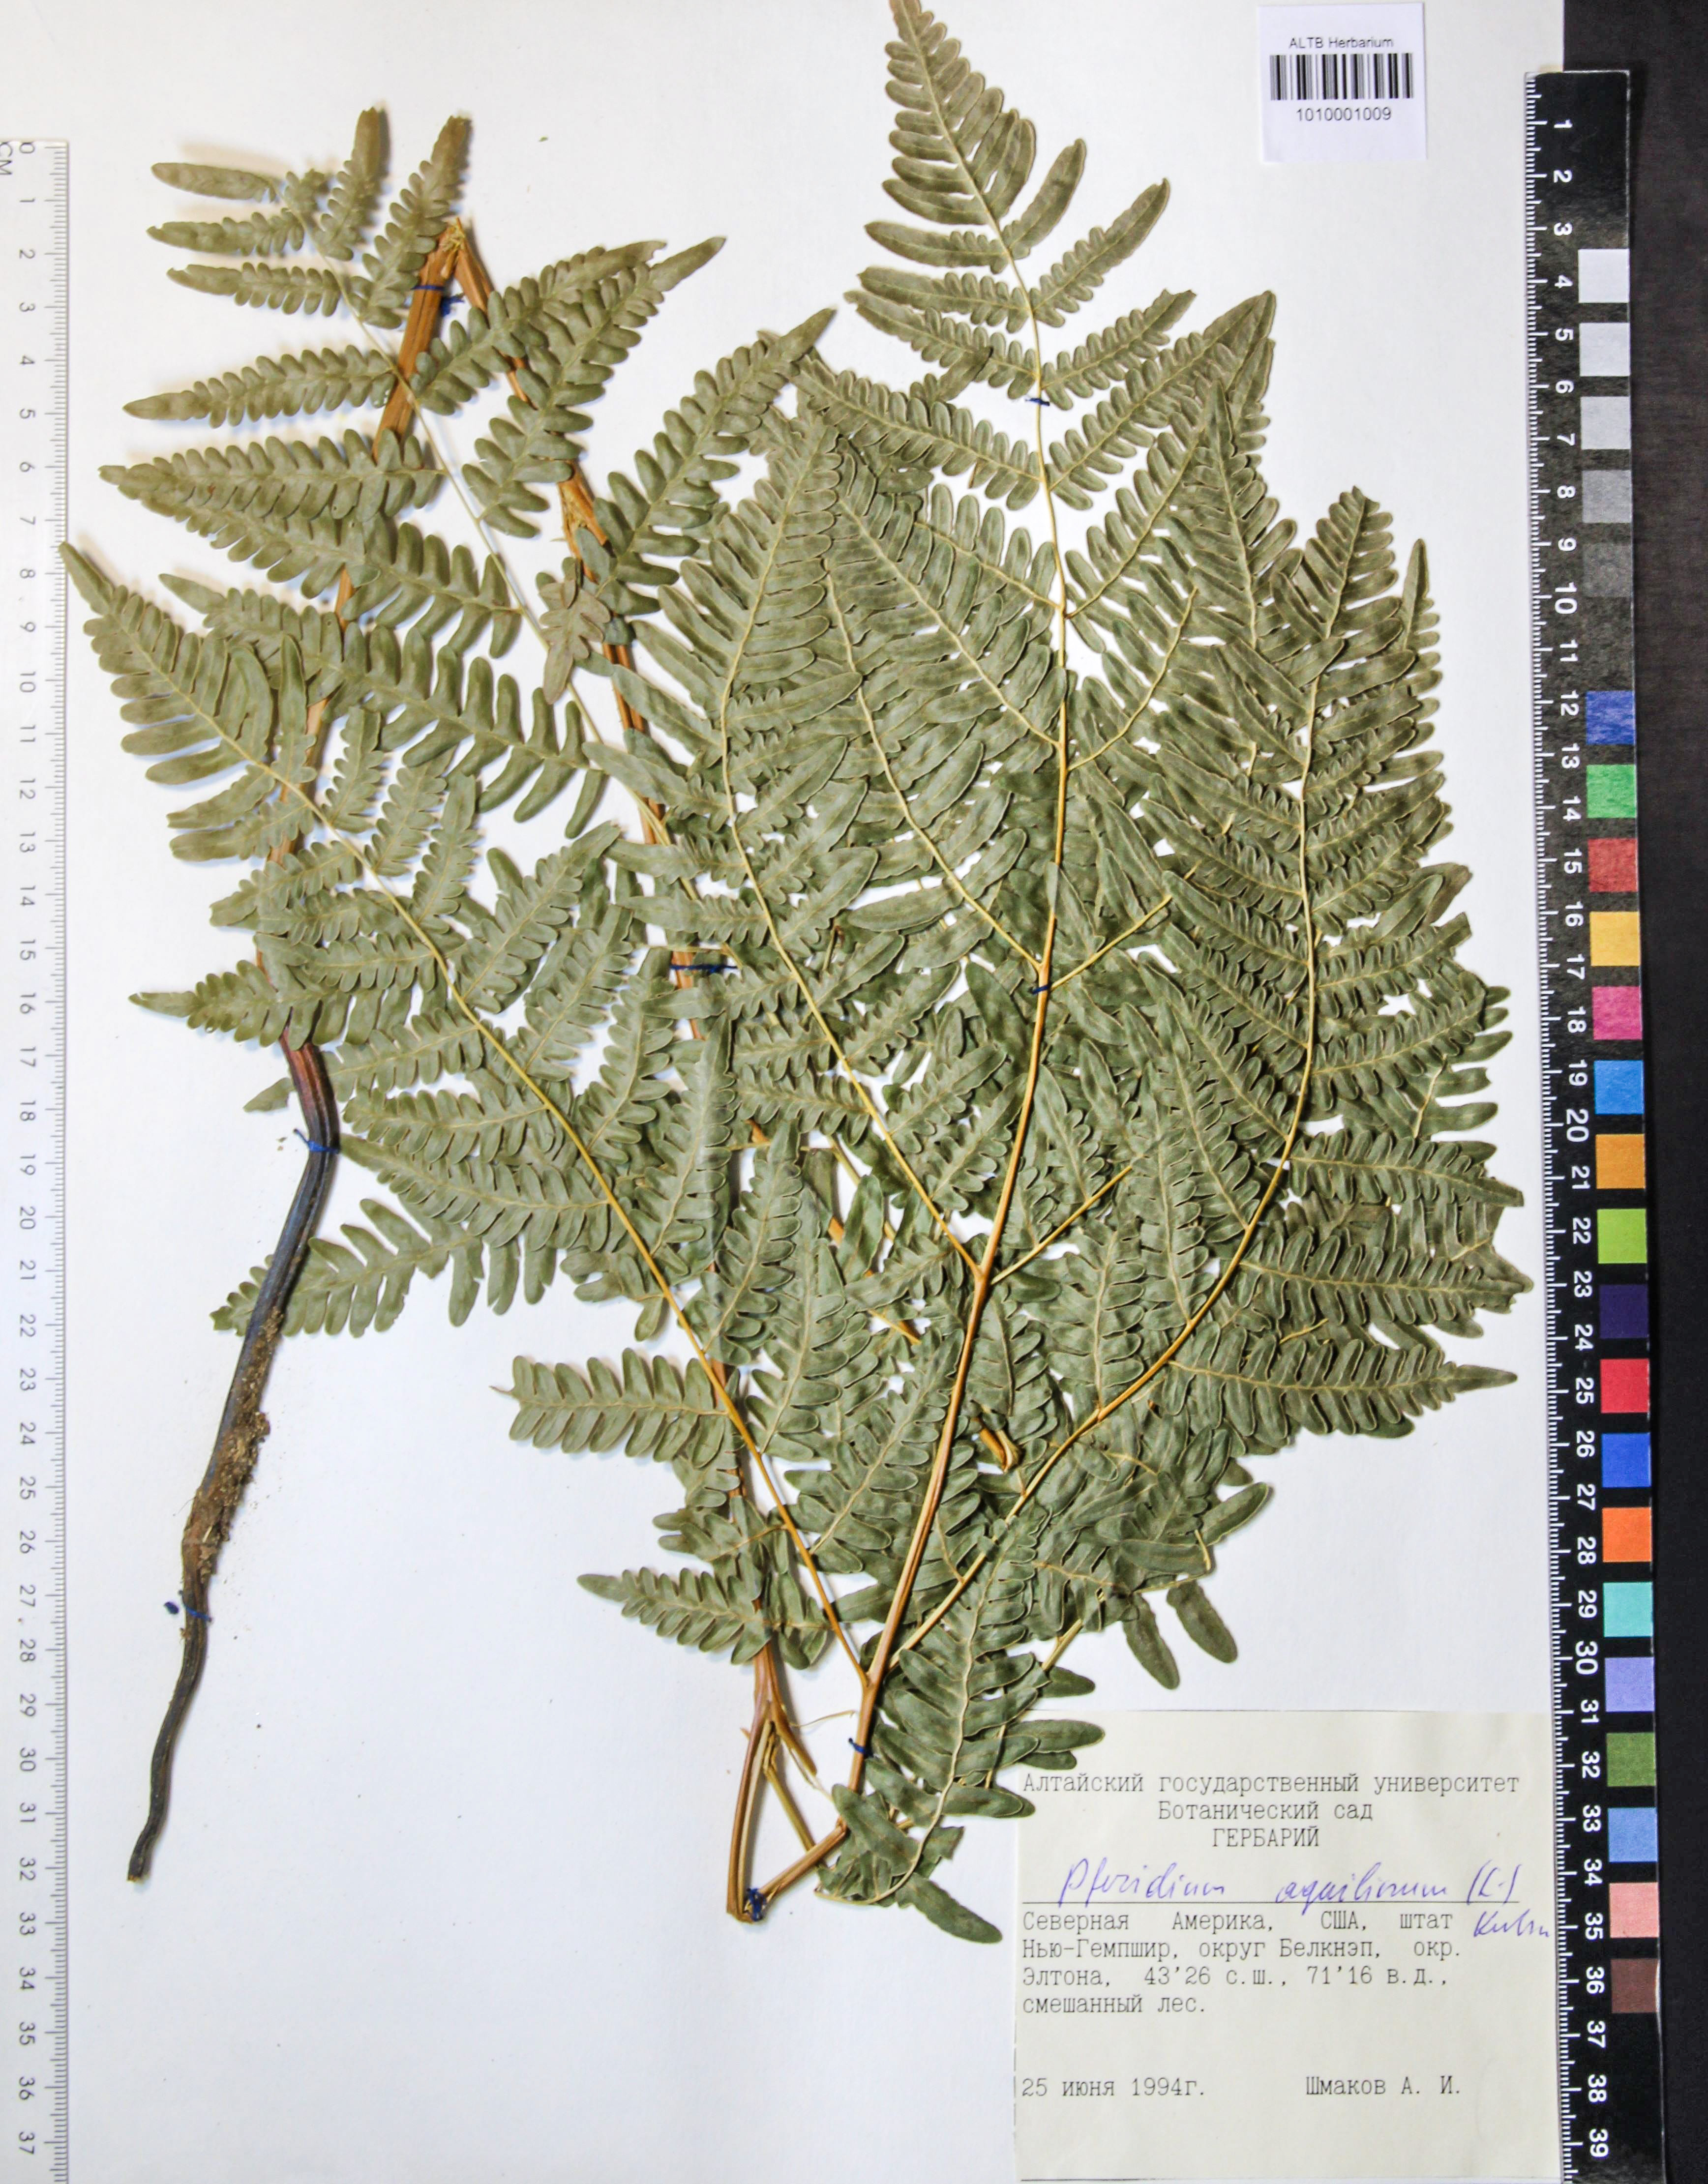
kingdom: Plantae
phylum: Tracheophyta
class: Polypodiopsida
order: Polypodiales
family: Dennstaedtiaceae
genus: Pteridium
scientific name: Pteridium aquilinum
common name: Bracken
